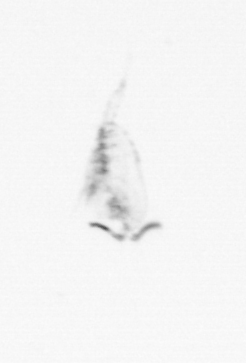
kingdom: Animalia
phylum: Arthropoda
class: Copepoda
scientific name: Copepoda
